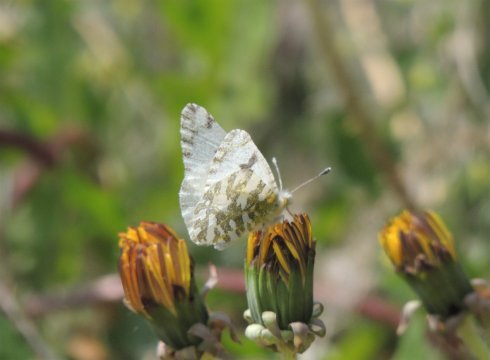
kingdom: Animalia
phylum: Arthropoda
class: Insecta
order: Lepidoptera
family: Pieridae
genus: Euchloe
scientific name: Euchloe lotta
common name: Desert Marble
